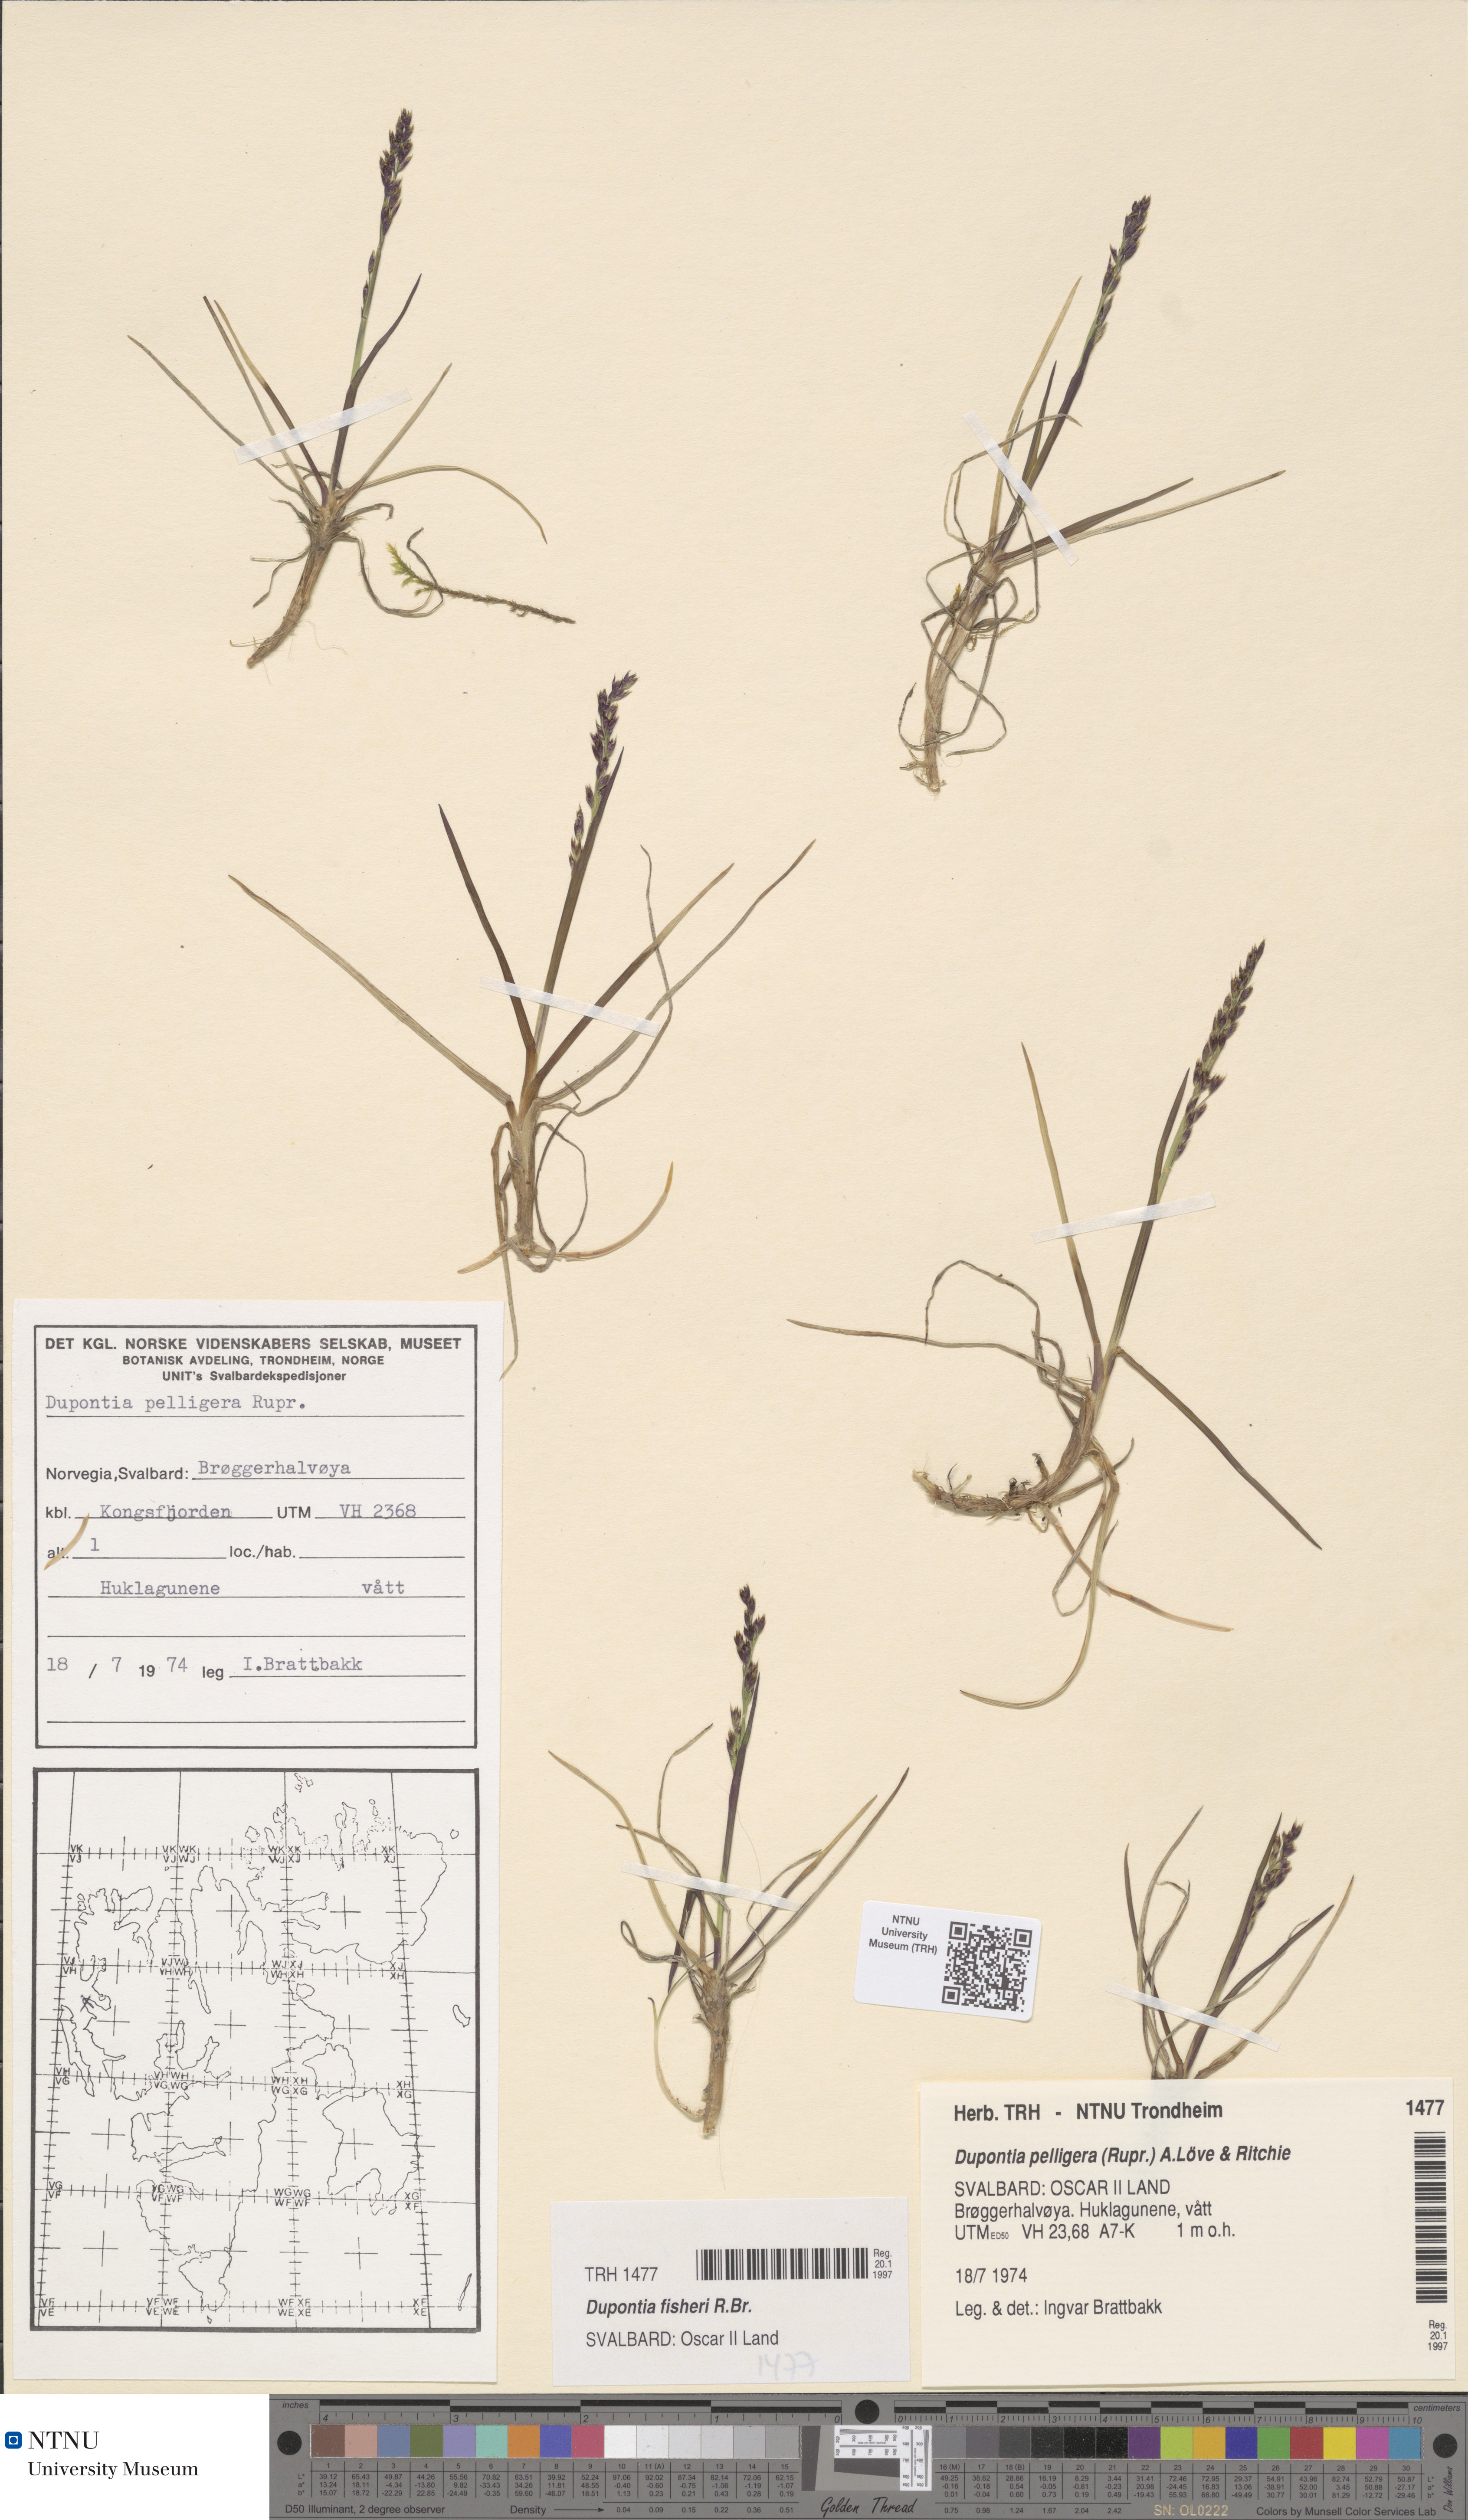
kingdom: Plantae
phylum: Tracheophyta
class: Liliopsida
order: Poales
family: Poaceae
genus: Dupontia
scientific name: Dupontia fisheri
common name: Tundra grass
